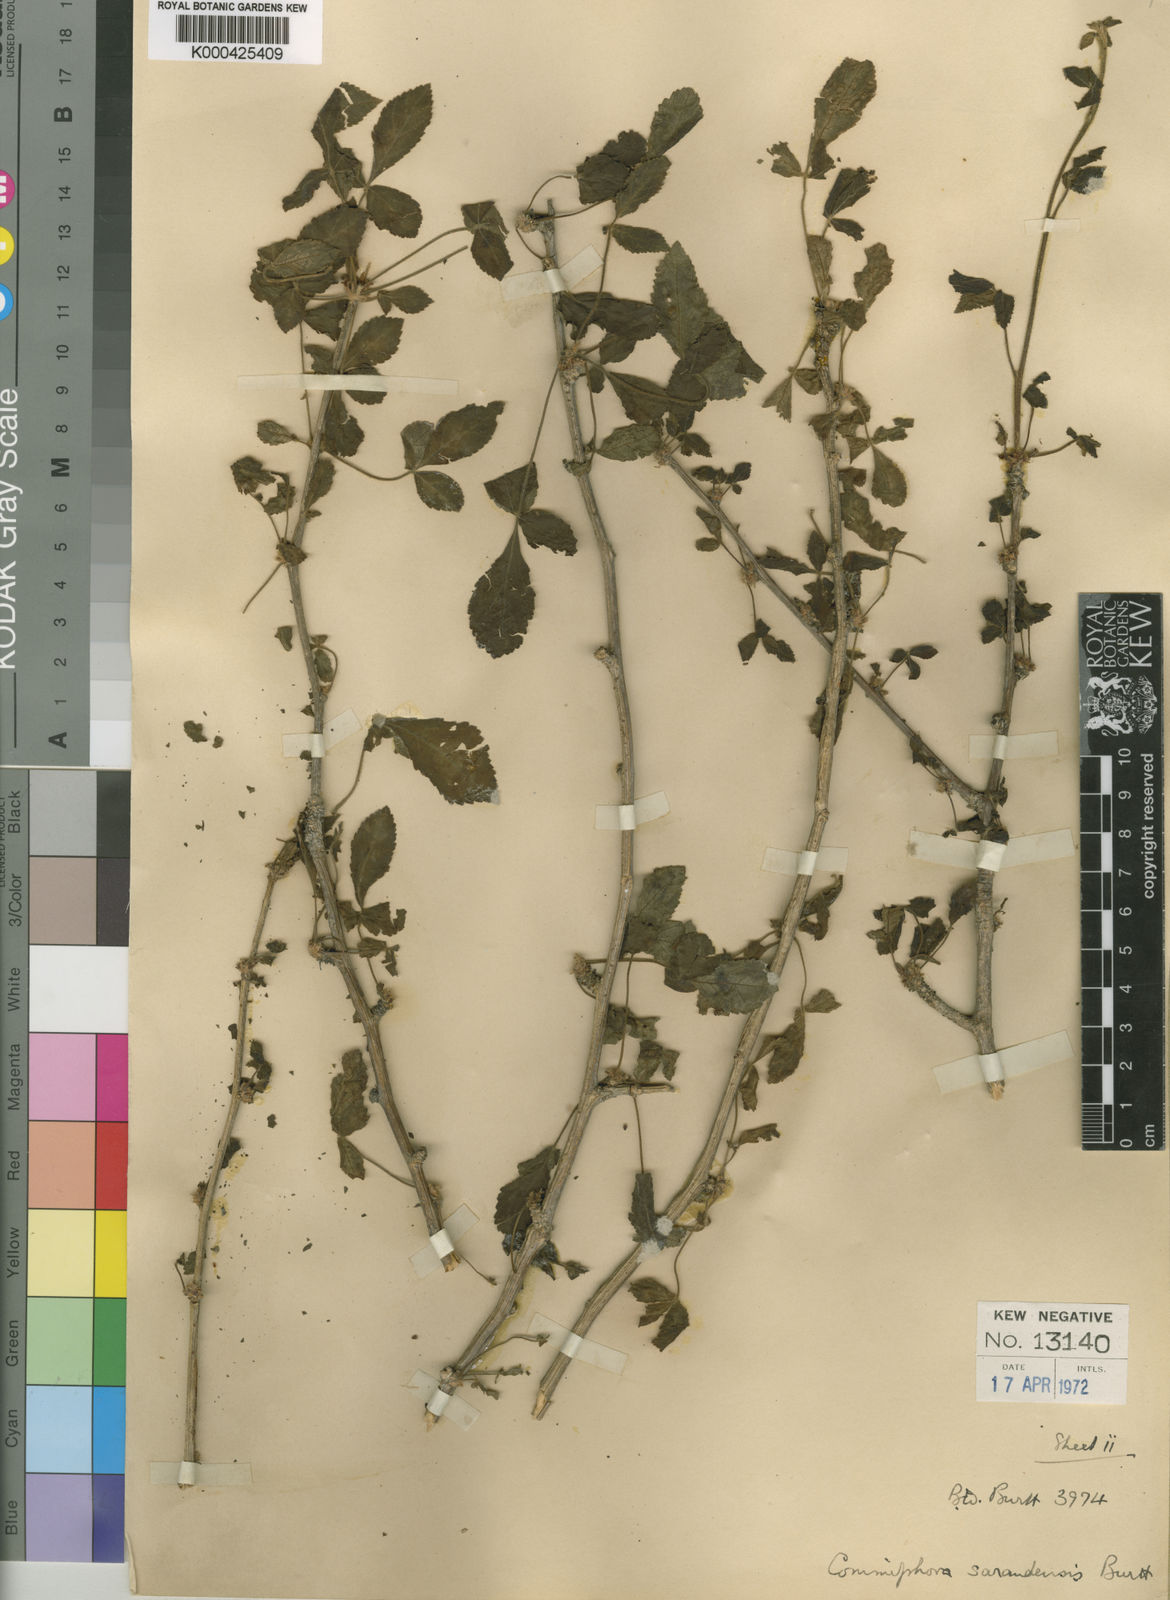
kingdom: Plantae
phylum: Tracheophyta
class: Magnoliopsida
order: Sapindales
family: Burseraceae
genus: Commiphora
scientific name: Commiphora sarandensis
